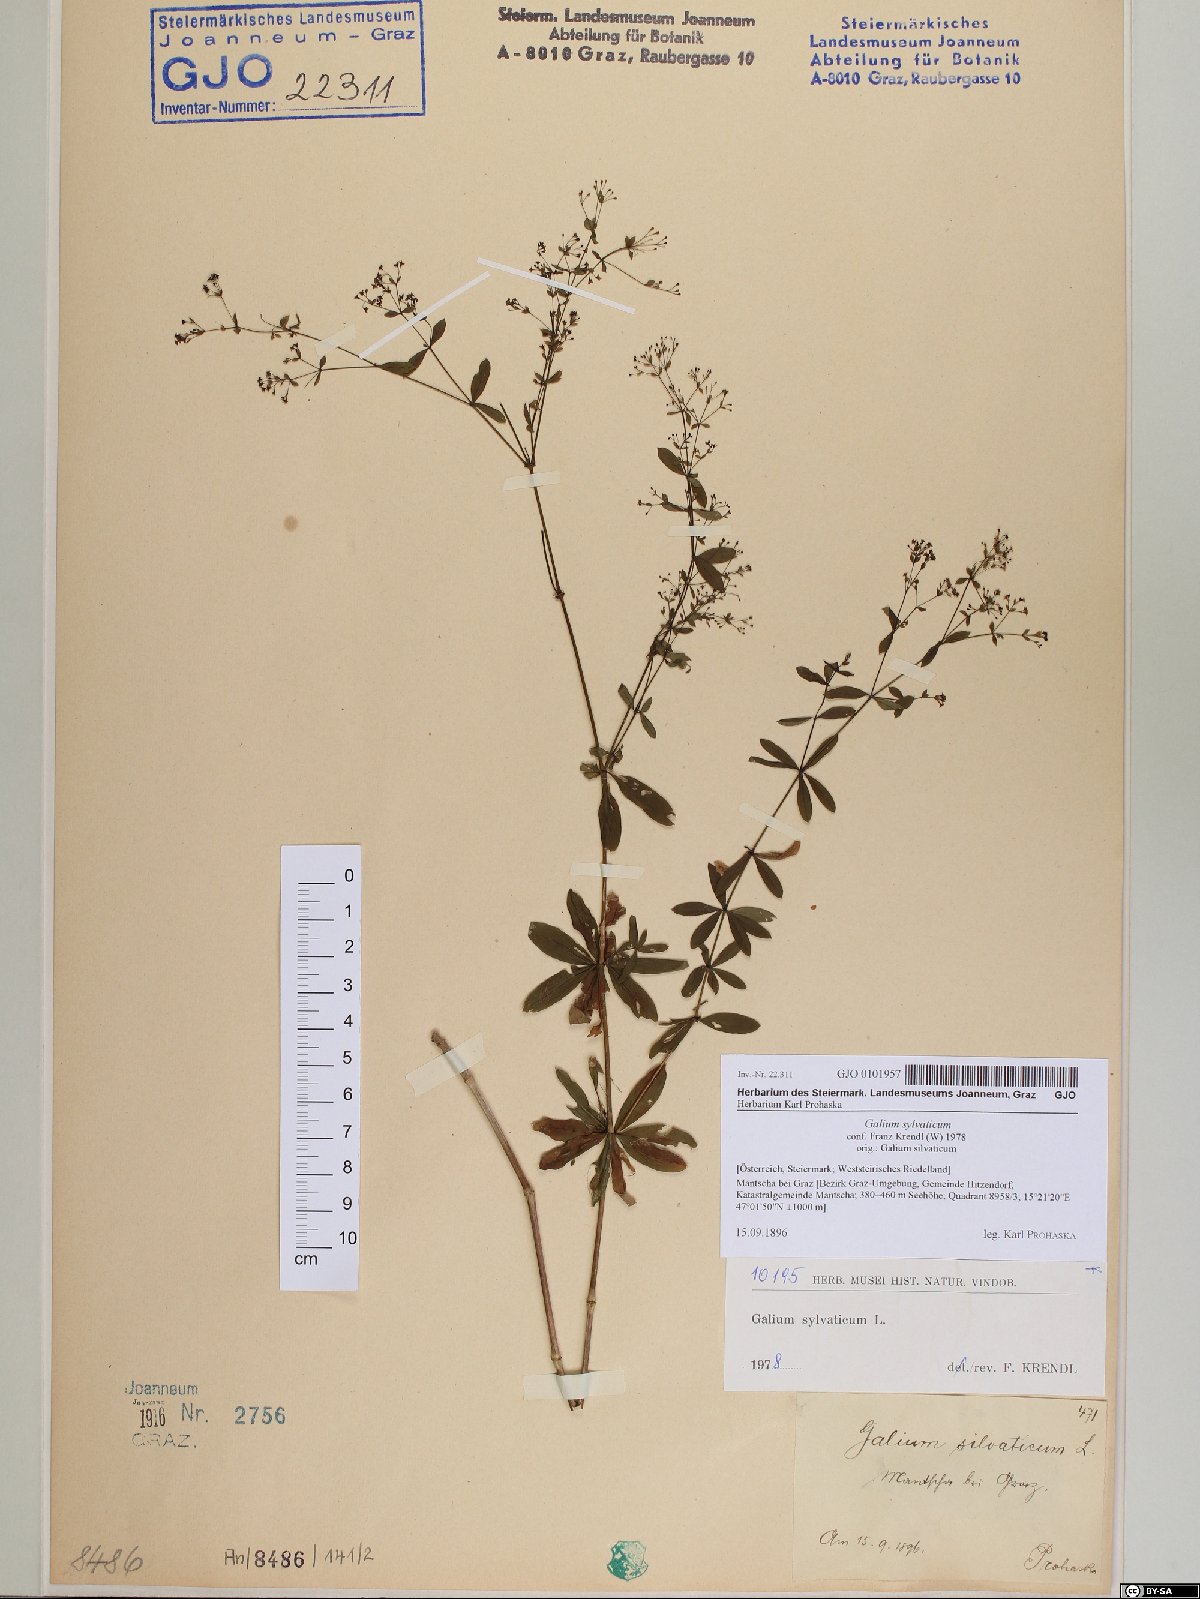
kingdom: Plantae
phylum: Tracheophyta
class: Magnoliopsida
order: Gentianales
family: Rubiaceae
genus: Galium
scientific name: Galium sylvaticum
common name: Wood bedstraw
